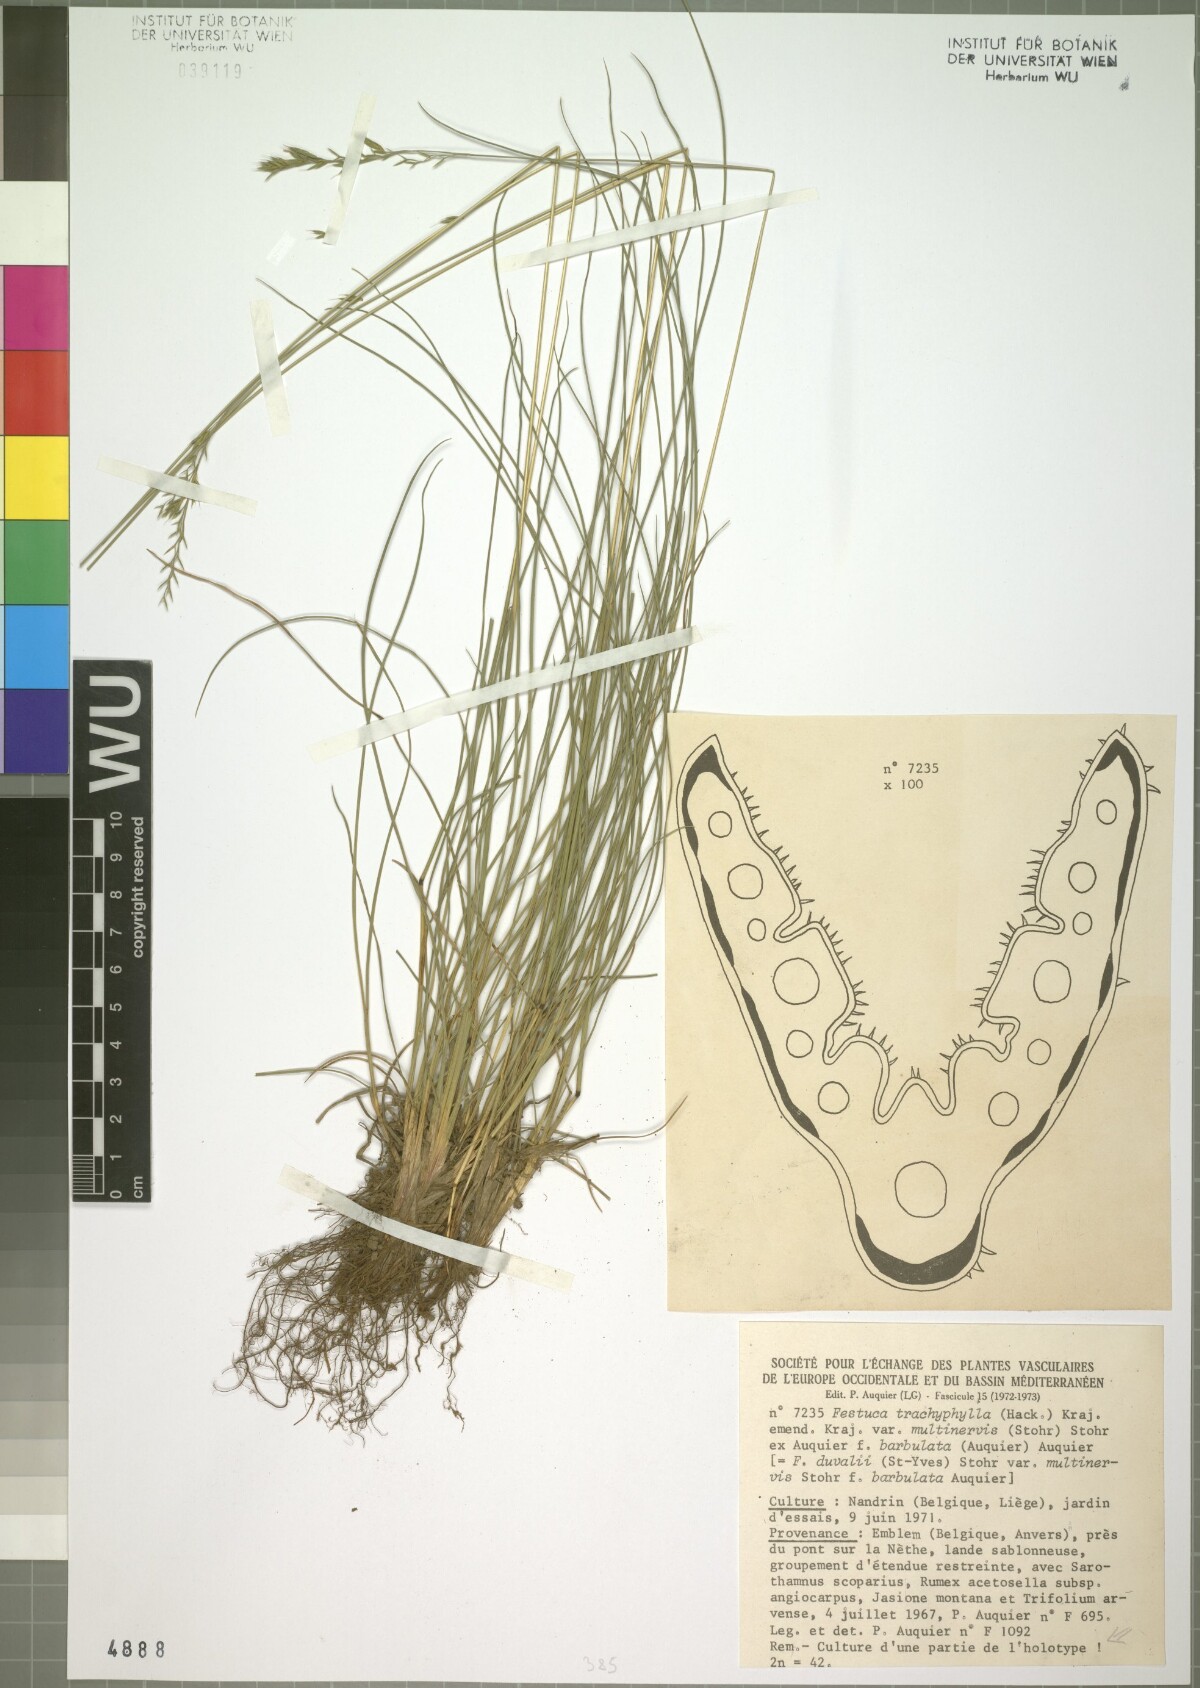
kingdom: Plantae
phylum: Tracheophyta
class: Liliopsida
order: Poales
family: Poaceae
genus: Festuca
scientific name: Festuca duvalii
